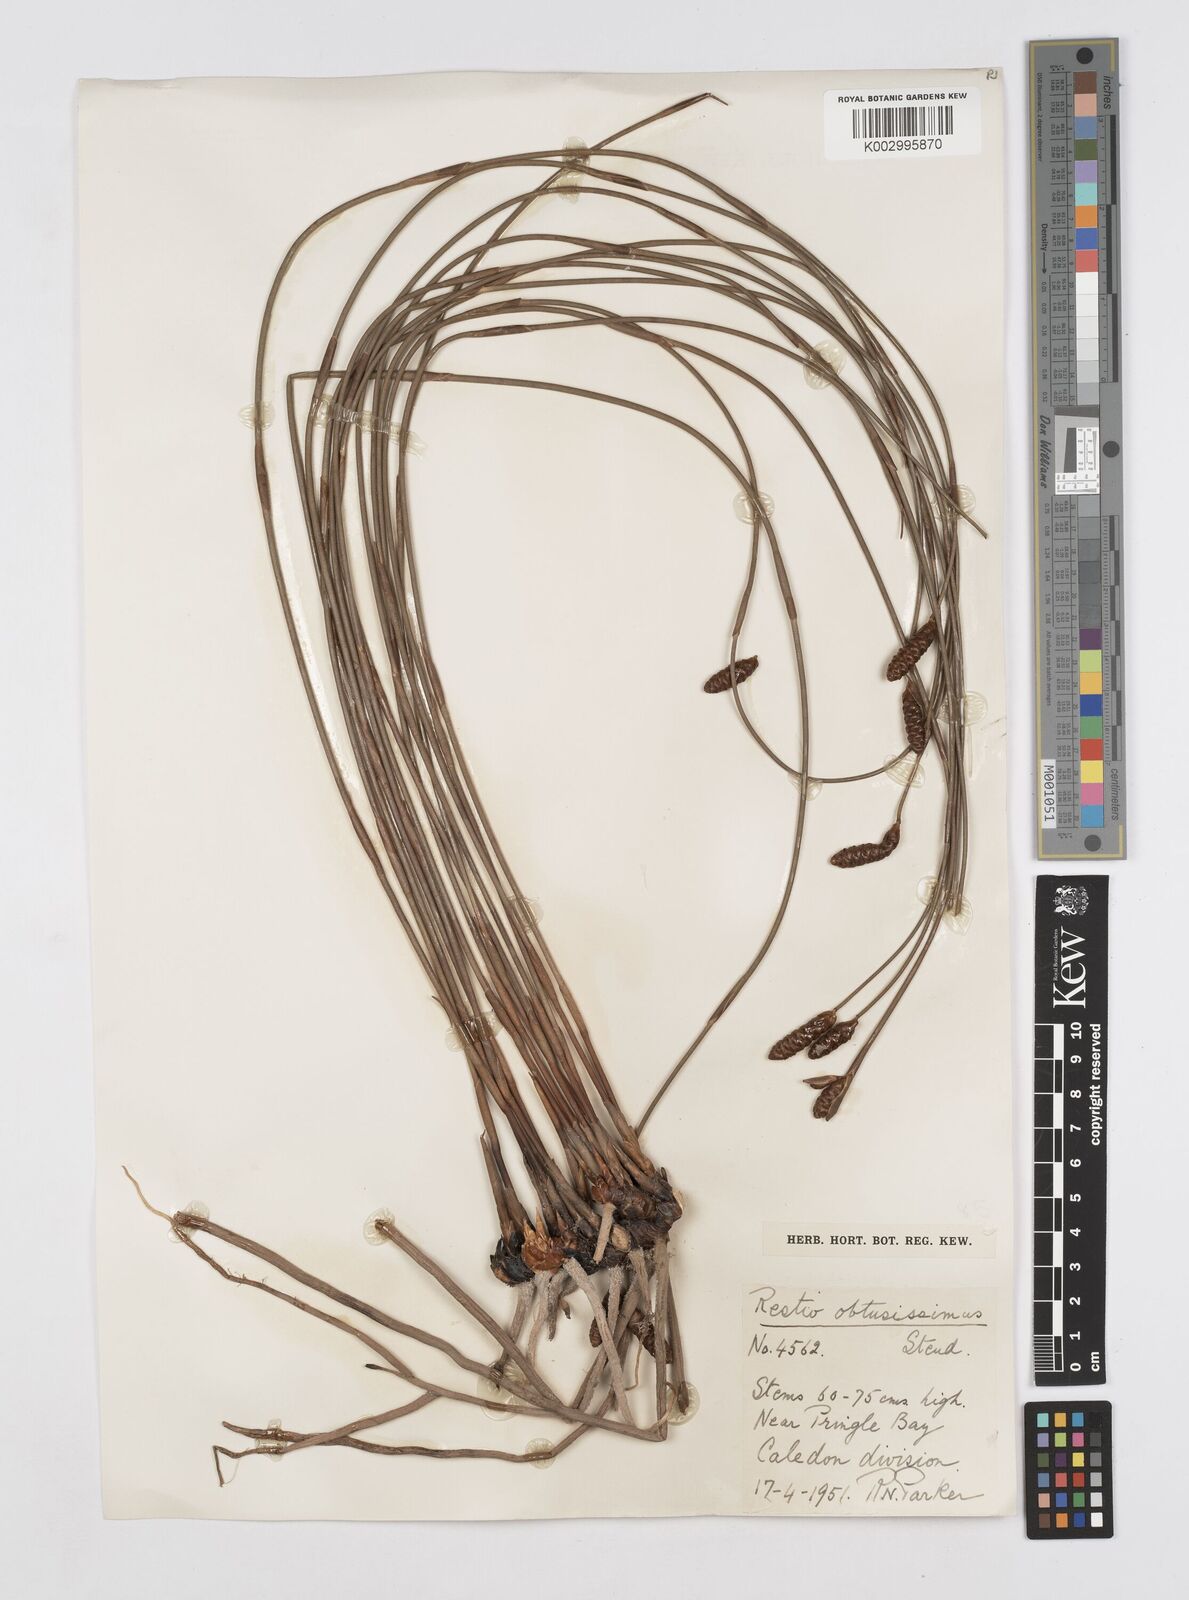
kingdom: Plantae
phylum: Tracheophyta
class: Liliopsida
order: Poales
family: Restionaceae
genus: Nevillea
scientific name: Nevillea obtusissimus
